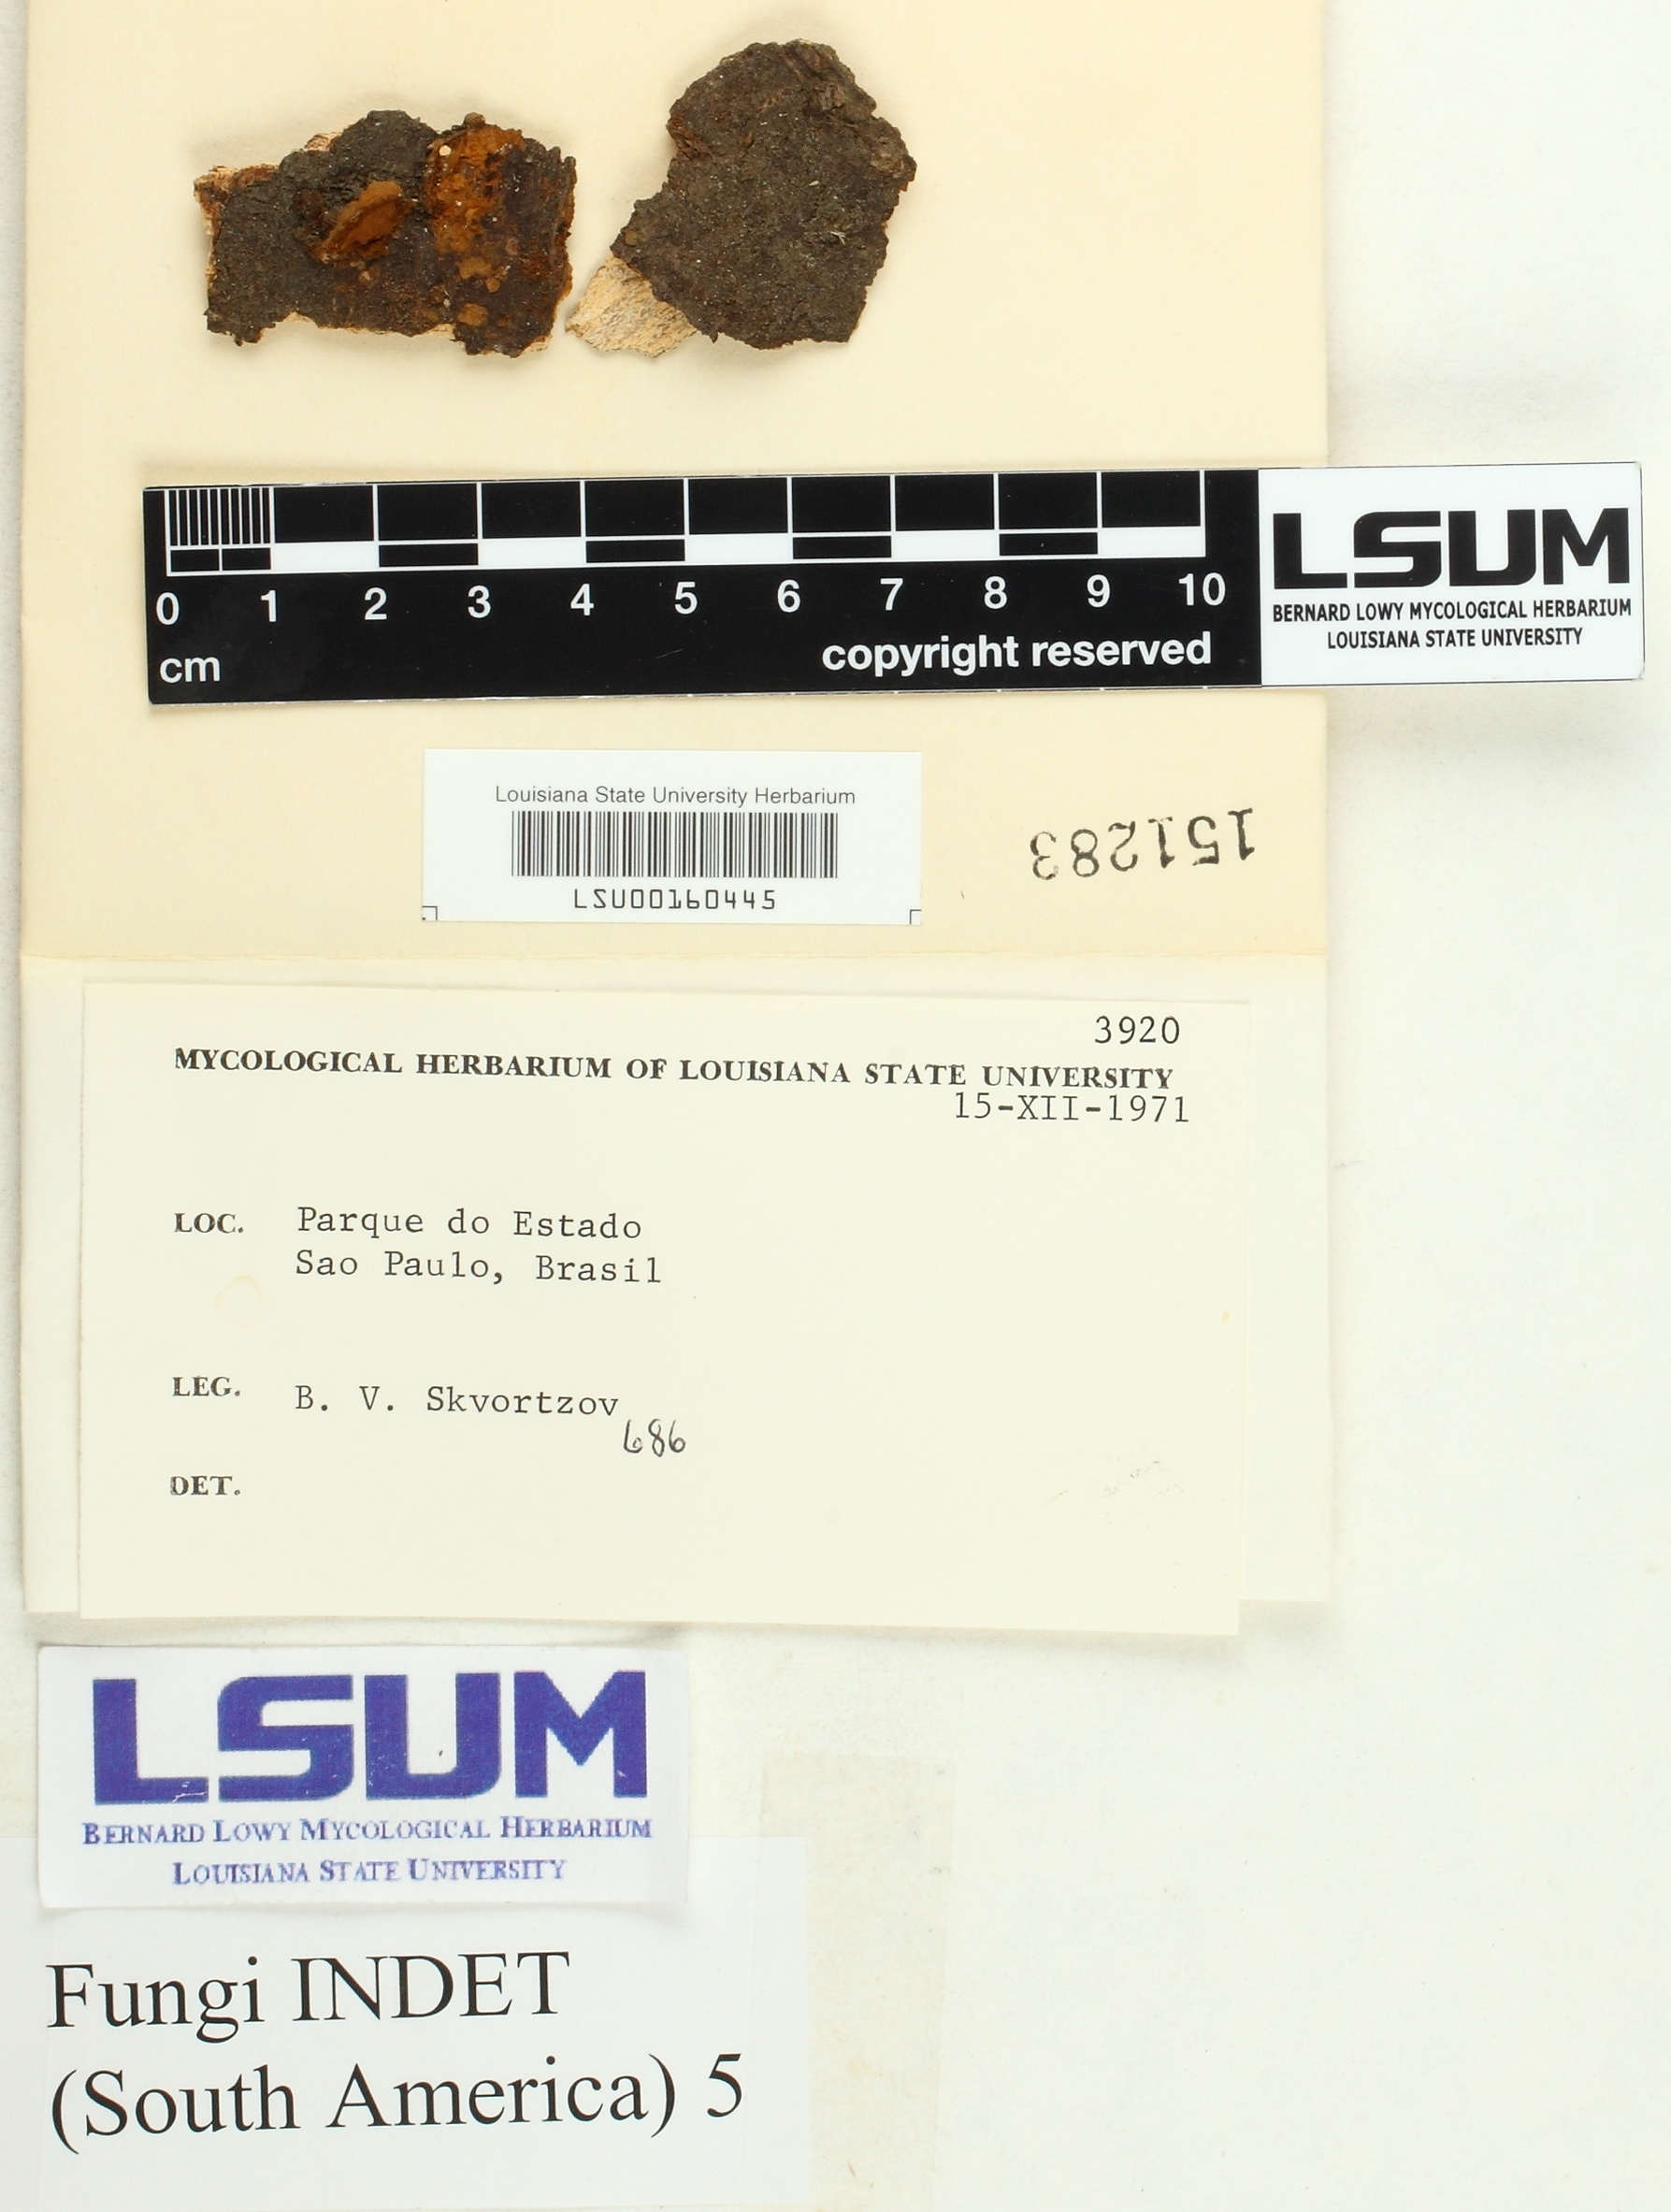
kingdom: Fungi
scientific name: Fungi
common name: Fungi
